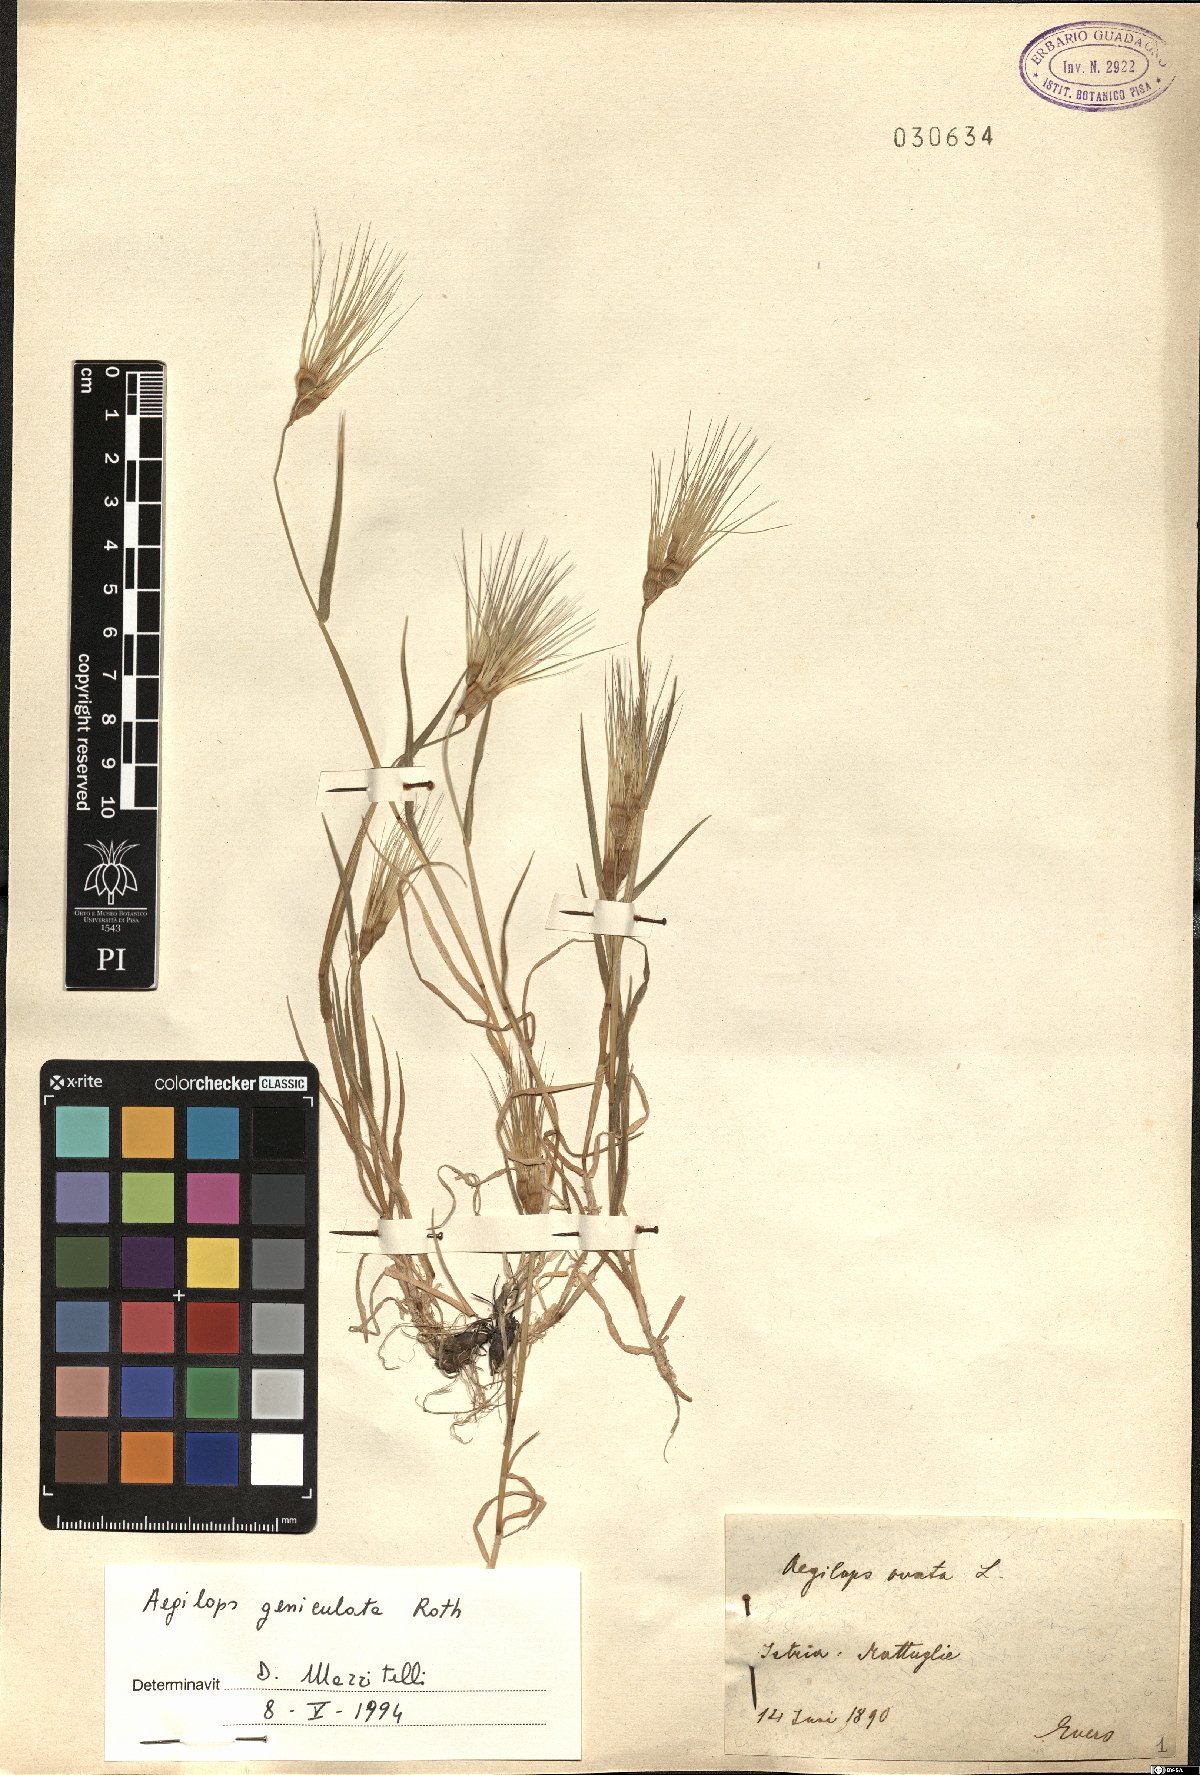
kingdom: Plantae
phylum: Tracheophyta
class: Liliopsida
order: Poales
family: Poaceae
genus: Aegilops
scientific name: Aegilops geniculata
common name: Ovate goat grass
